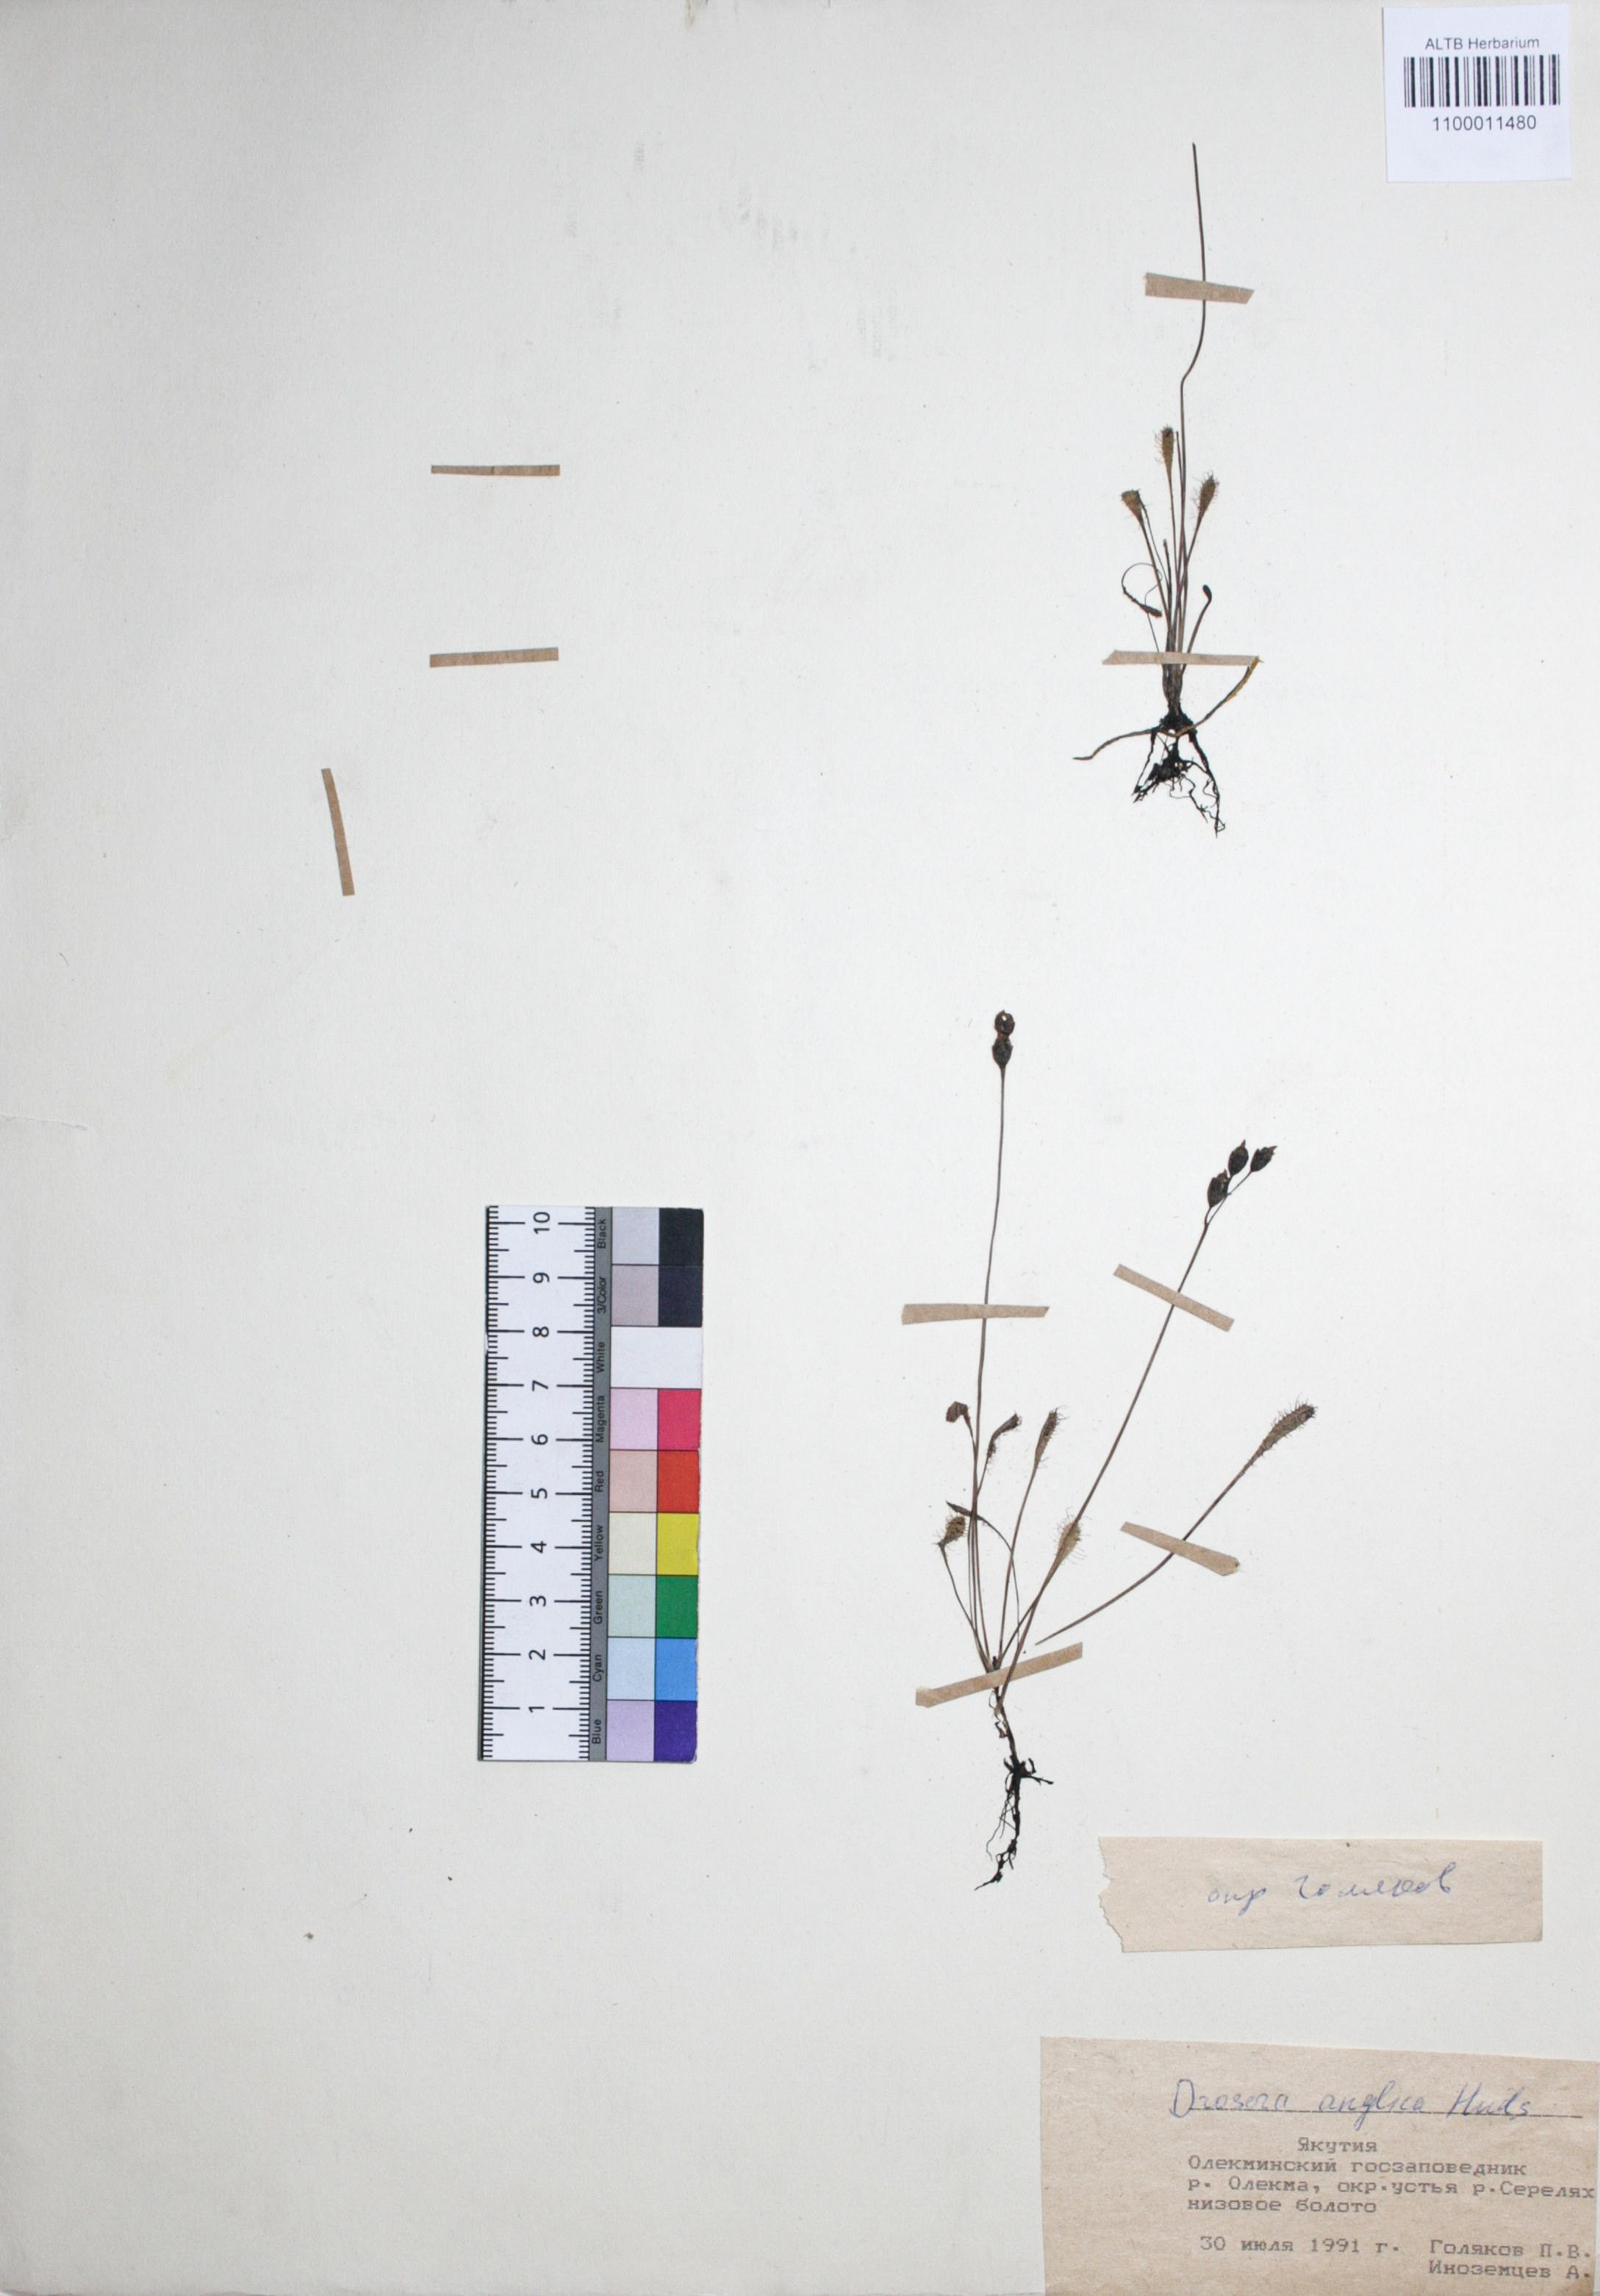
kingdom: Plantae
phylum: Tracheophyta
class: Magnoliopsida
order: Caryophyllales
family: Droseraceae
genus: Drosera
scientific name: Drosera anglica
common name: Great sundew
